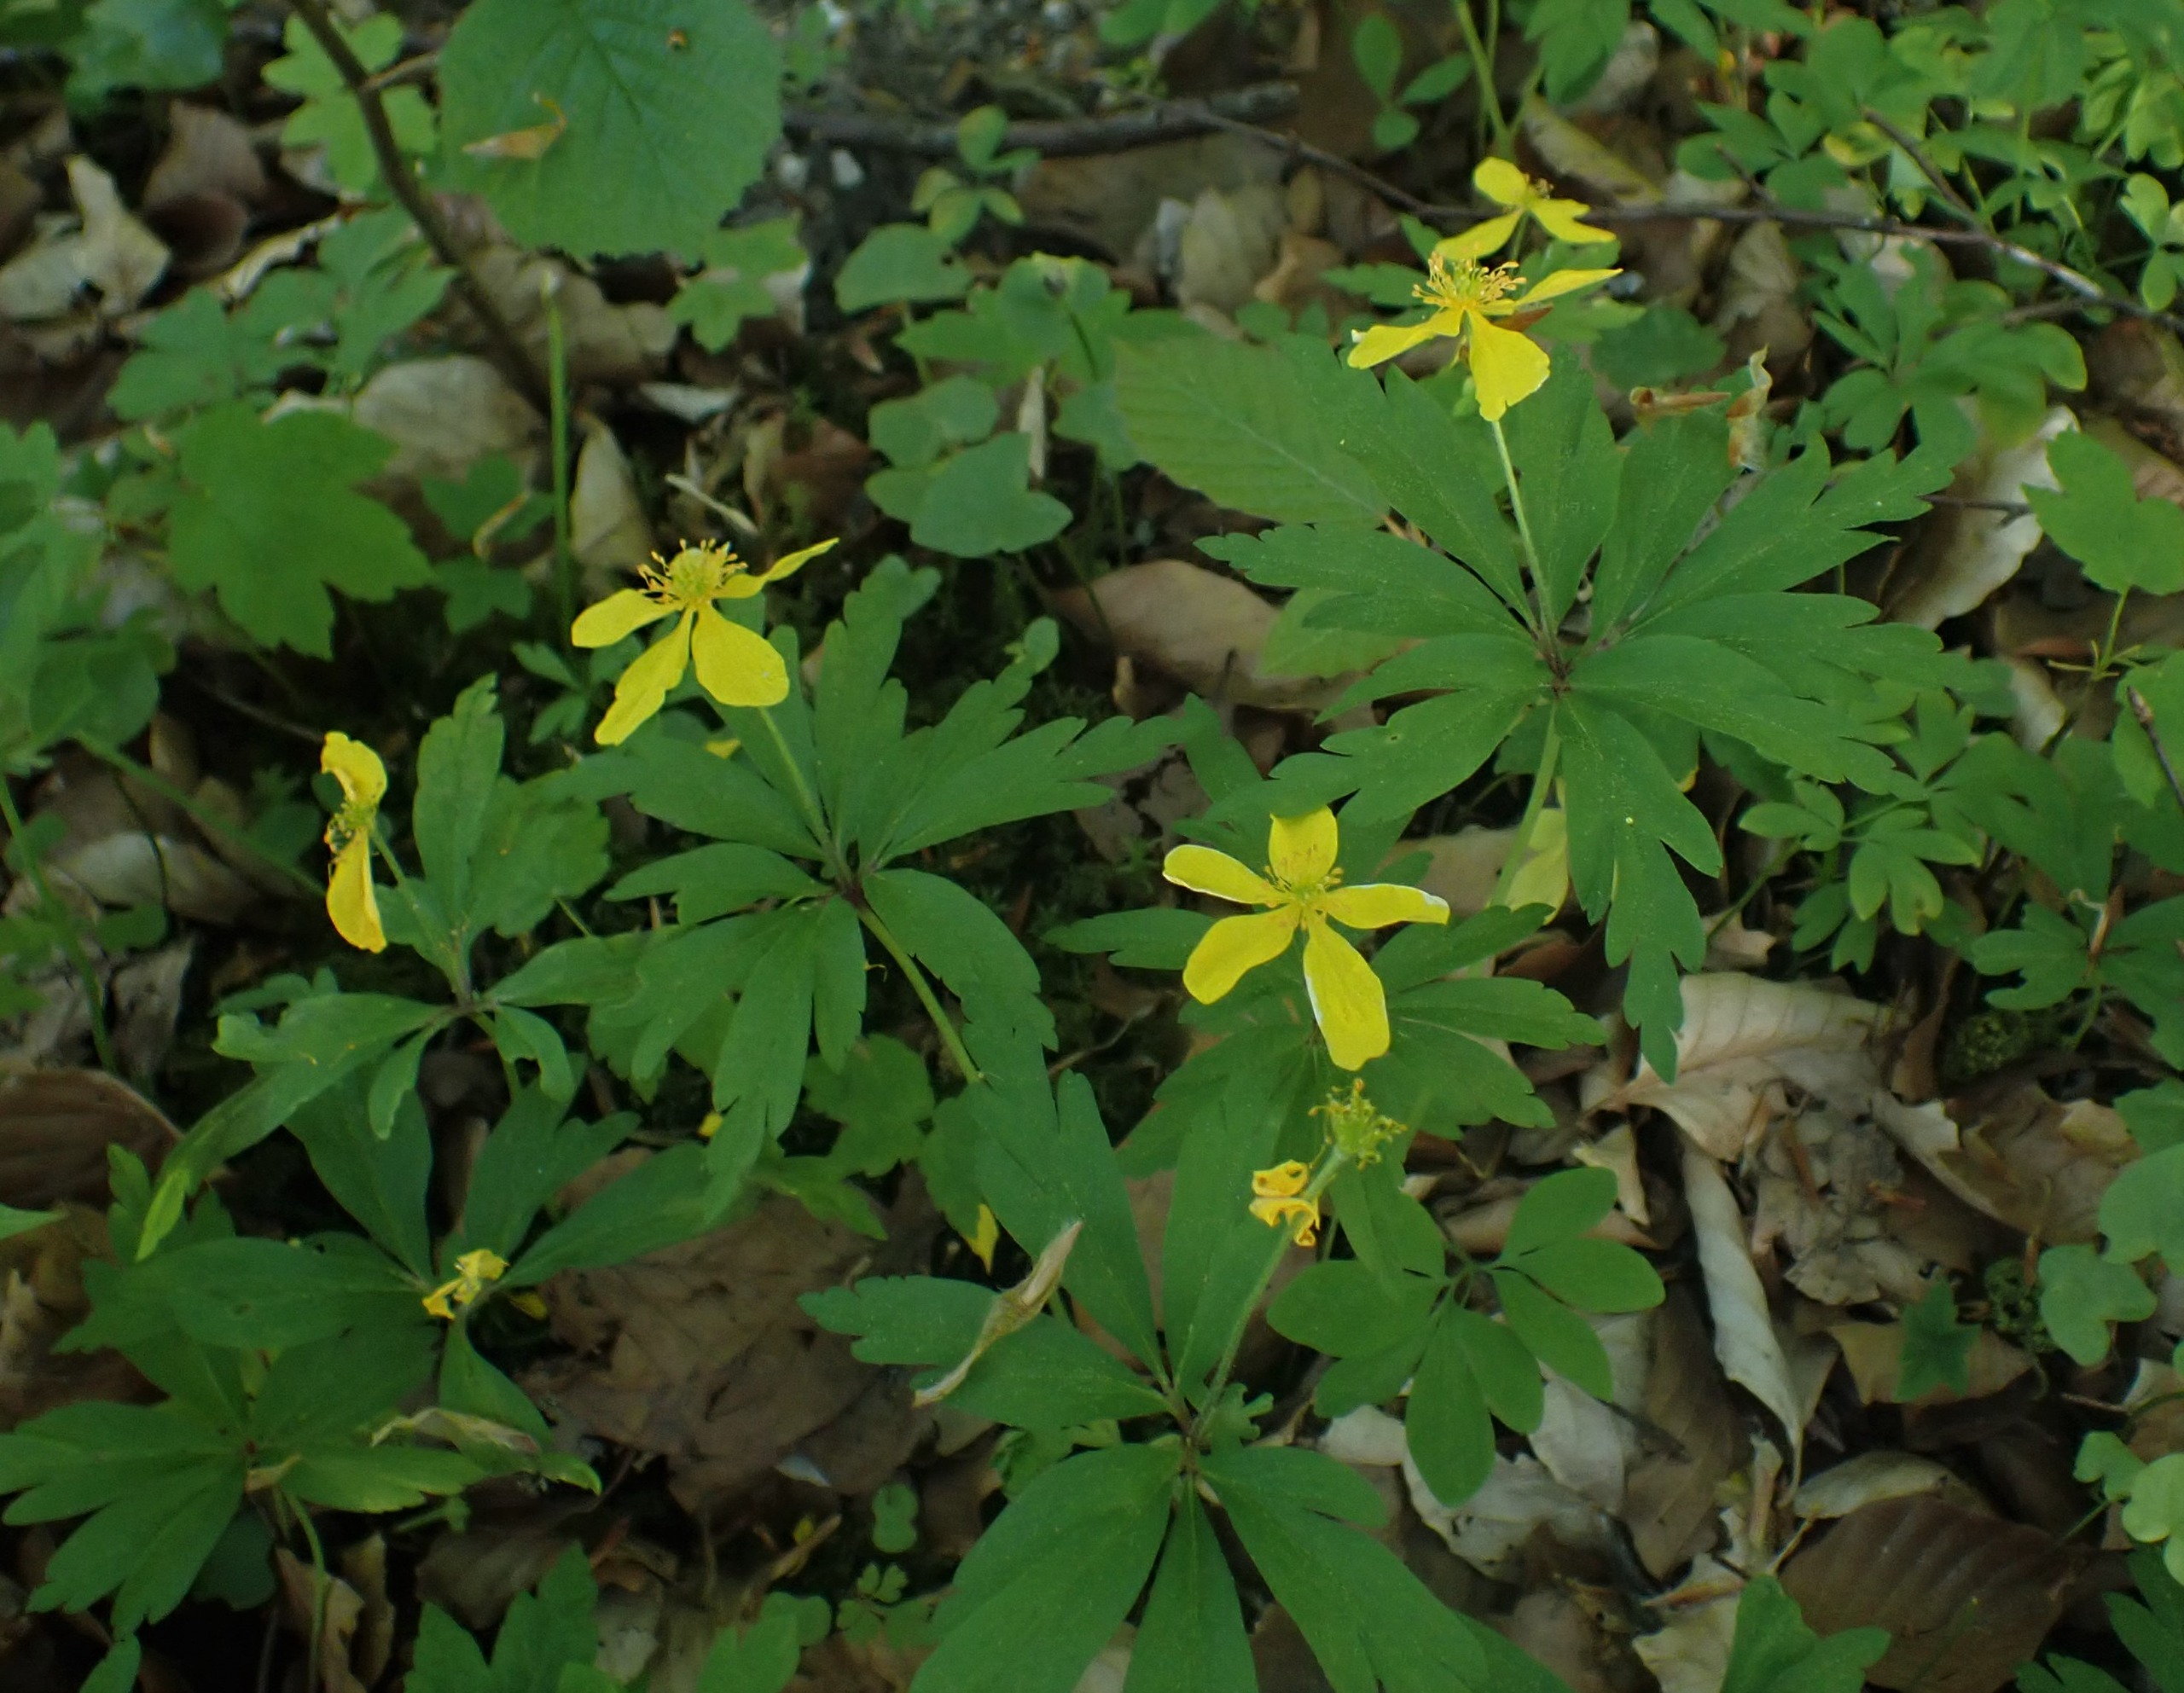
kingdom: Plantae
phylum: Tracheophyta
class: Magnoliopsida
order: Ranunculales
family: Ranunculaceae
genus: Anemone
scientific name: Anemone ranunculoides
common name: Gul anemone
